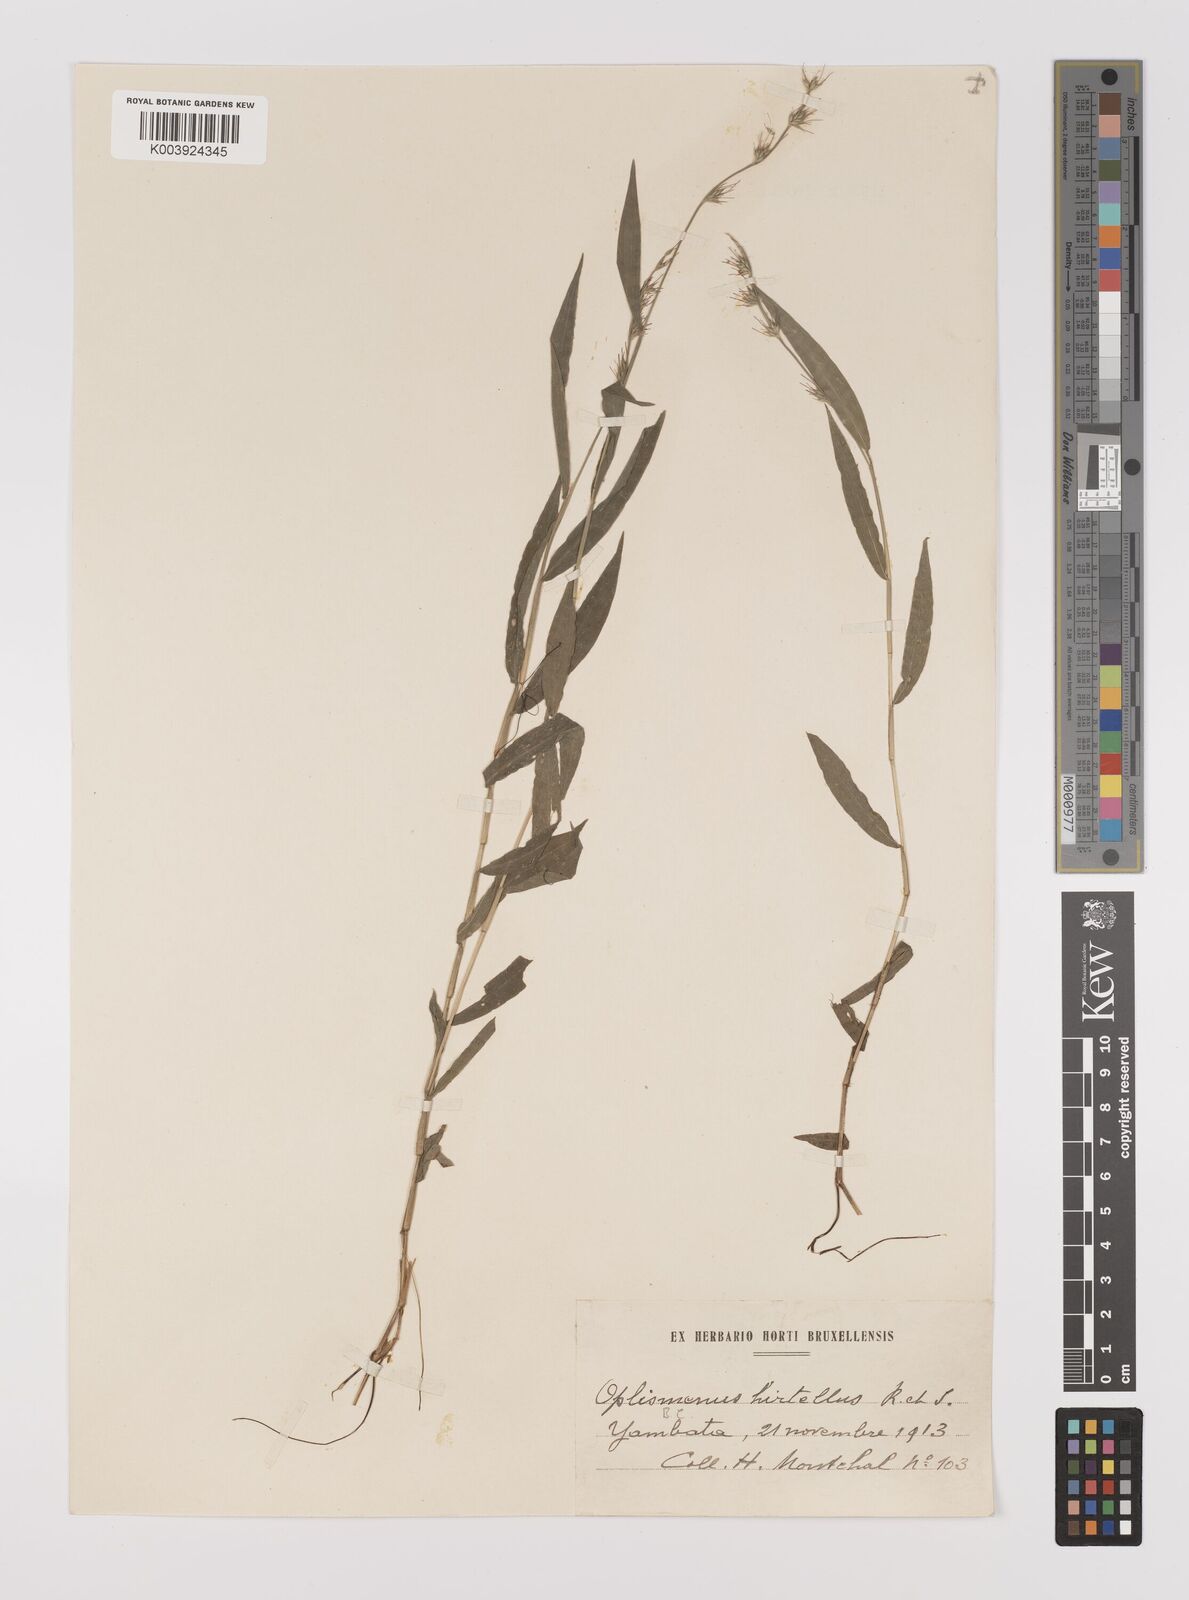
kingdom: Plantae
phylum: Tracheophyta
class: Liliopsida
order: Poales
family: Poaceae
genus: Oplismenus
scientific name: Oplismenus hirtellus
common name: Basketgrass
